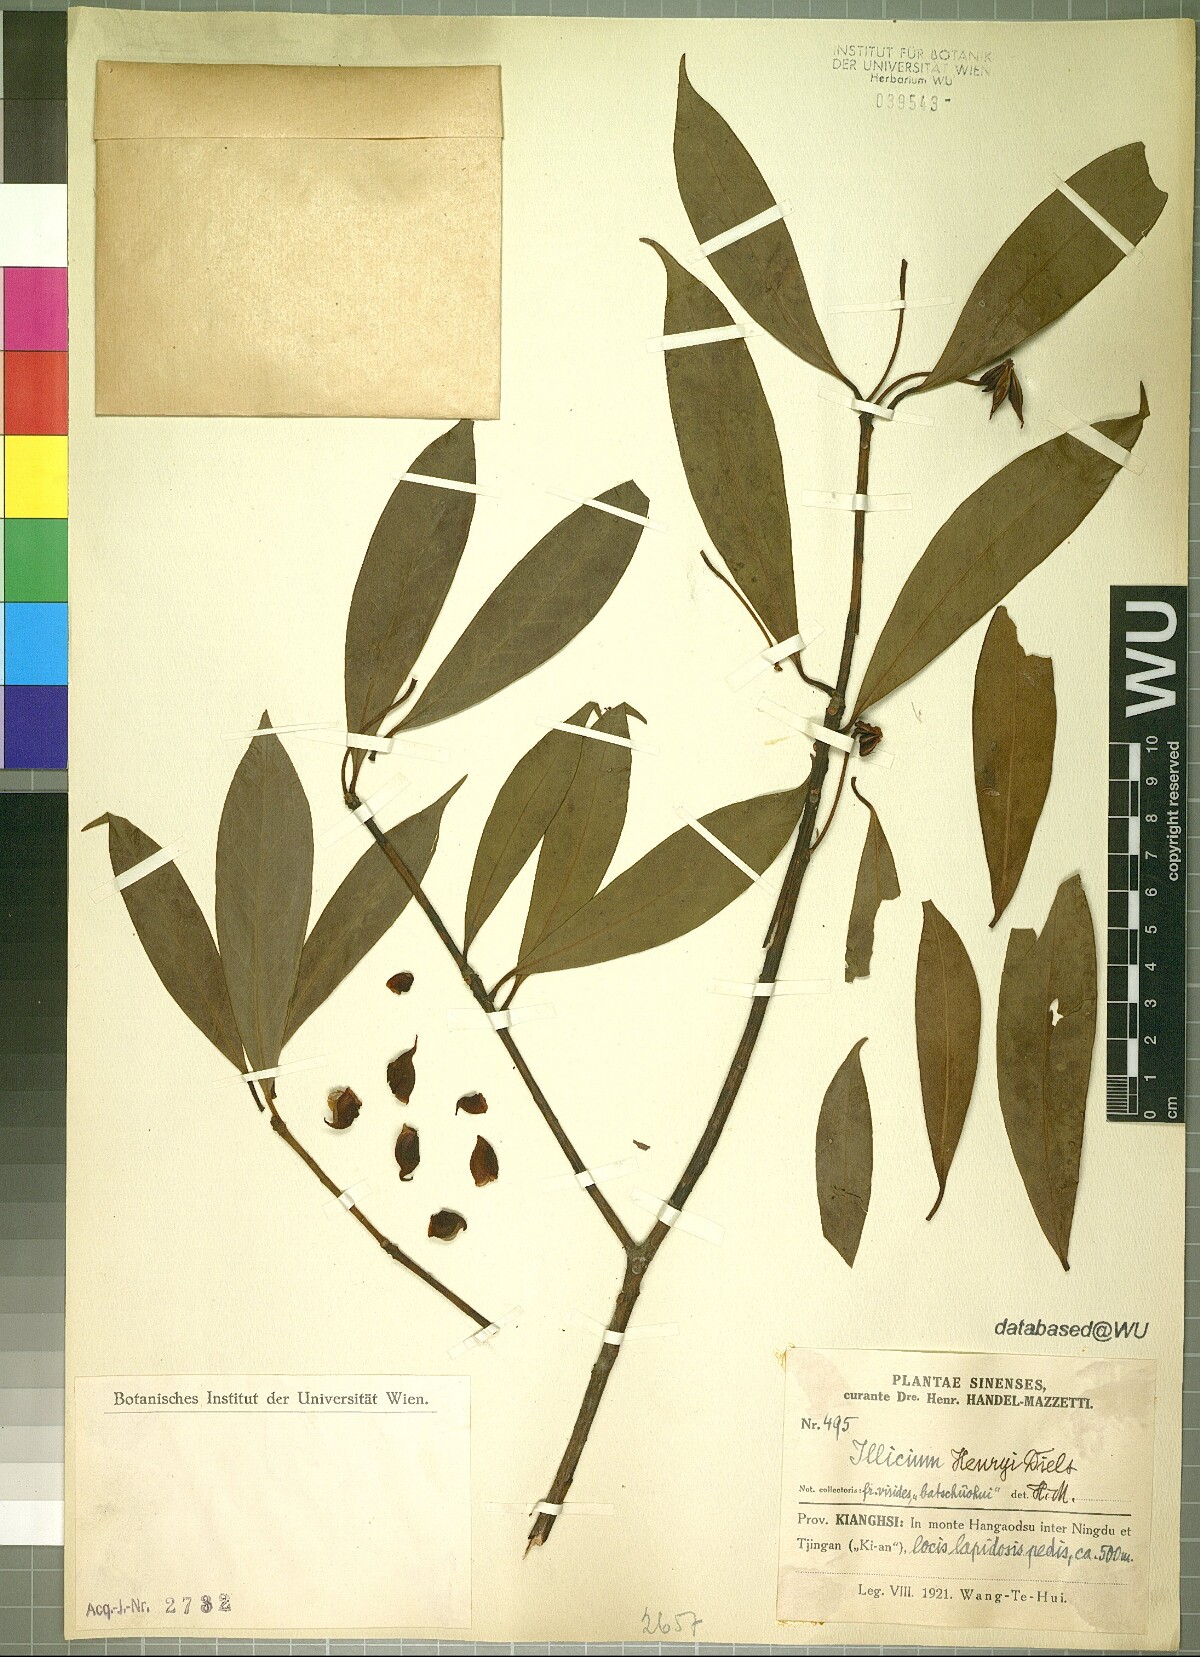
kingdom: Plantae
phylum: Tracheophyta
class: Magnoliopsida
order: Austrobaileyales
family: Schisandraceae
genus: Illicium
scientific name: Illicium henryi
